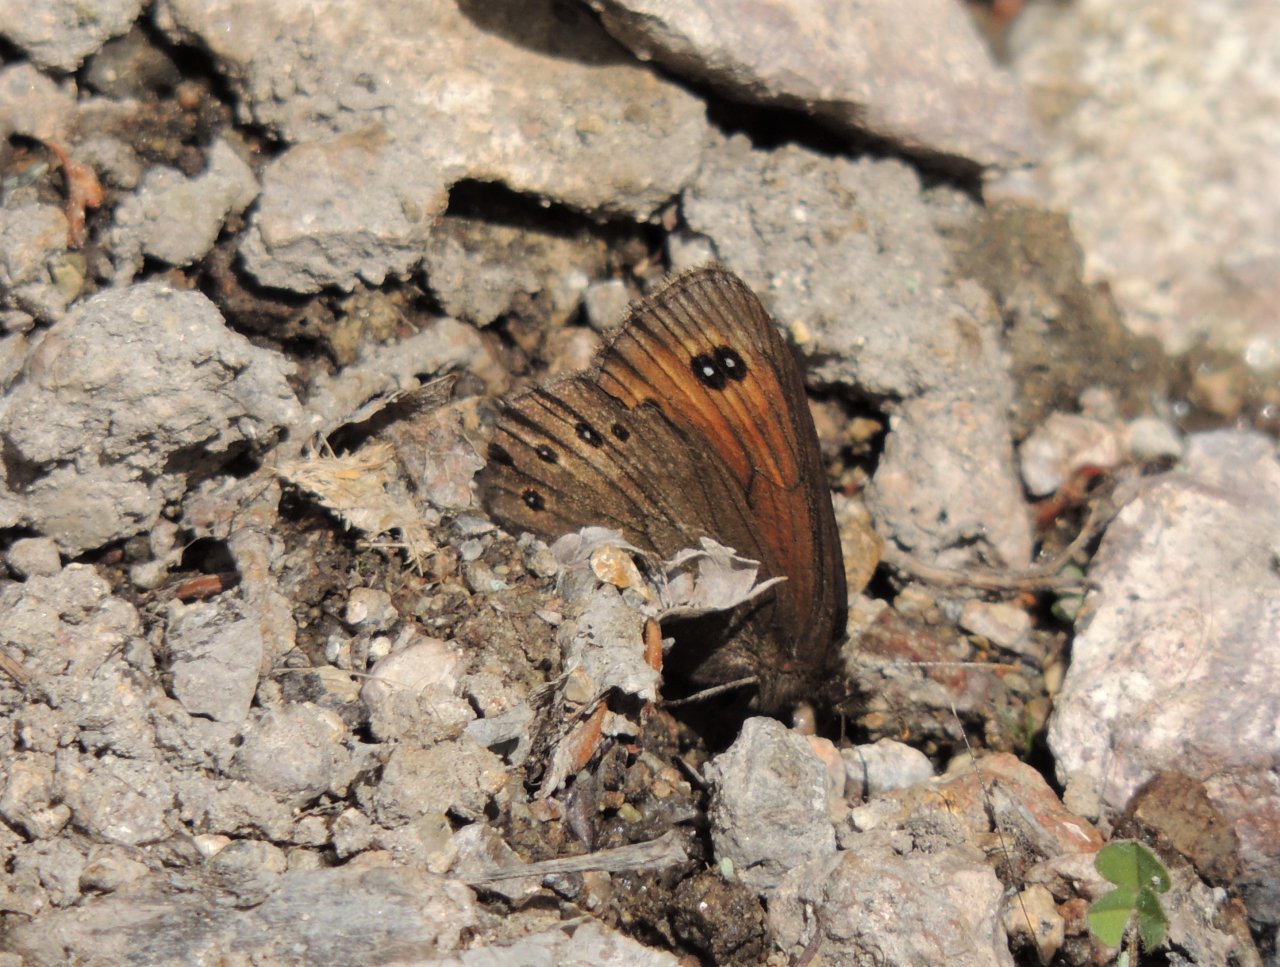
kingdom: Animalia
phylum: Arthropoda
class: Insecta
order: Lepidoptera
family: Nymphalidae
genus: Erebia
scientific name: Erebia epipsodea
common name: Common Alpine
